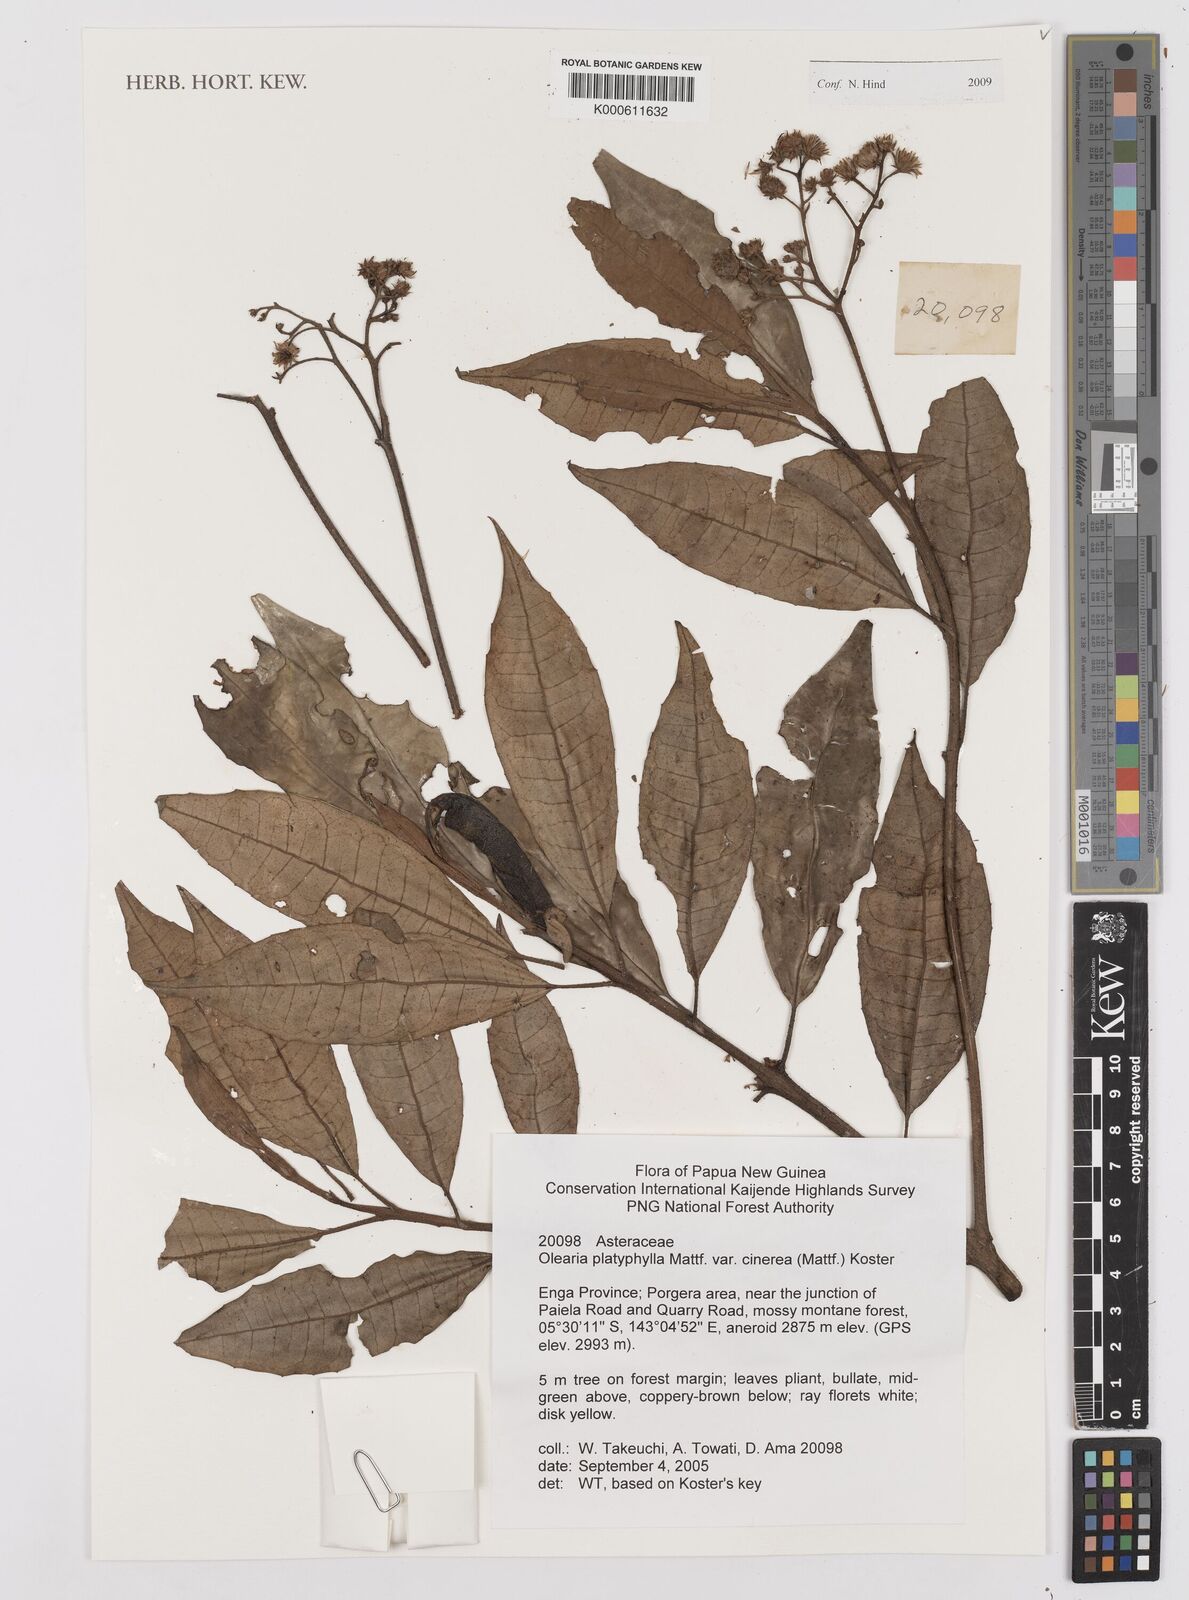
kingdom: Plantae
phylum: Tracheophyta
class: Magnoliopsida
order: Asterales
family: Asteraceae
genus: Olearia
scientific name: Olearia platyphylla
